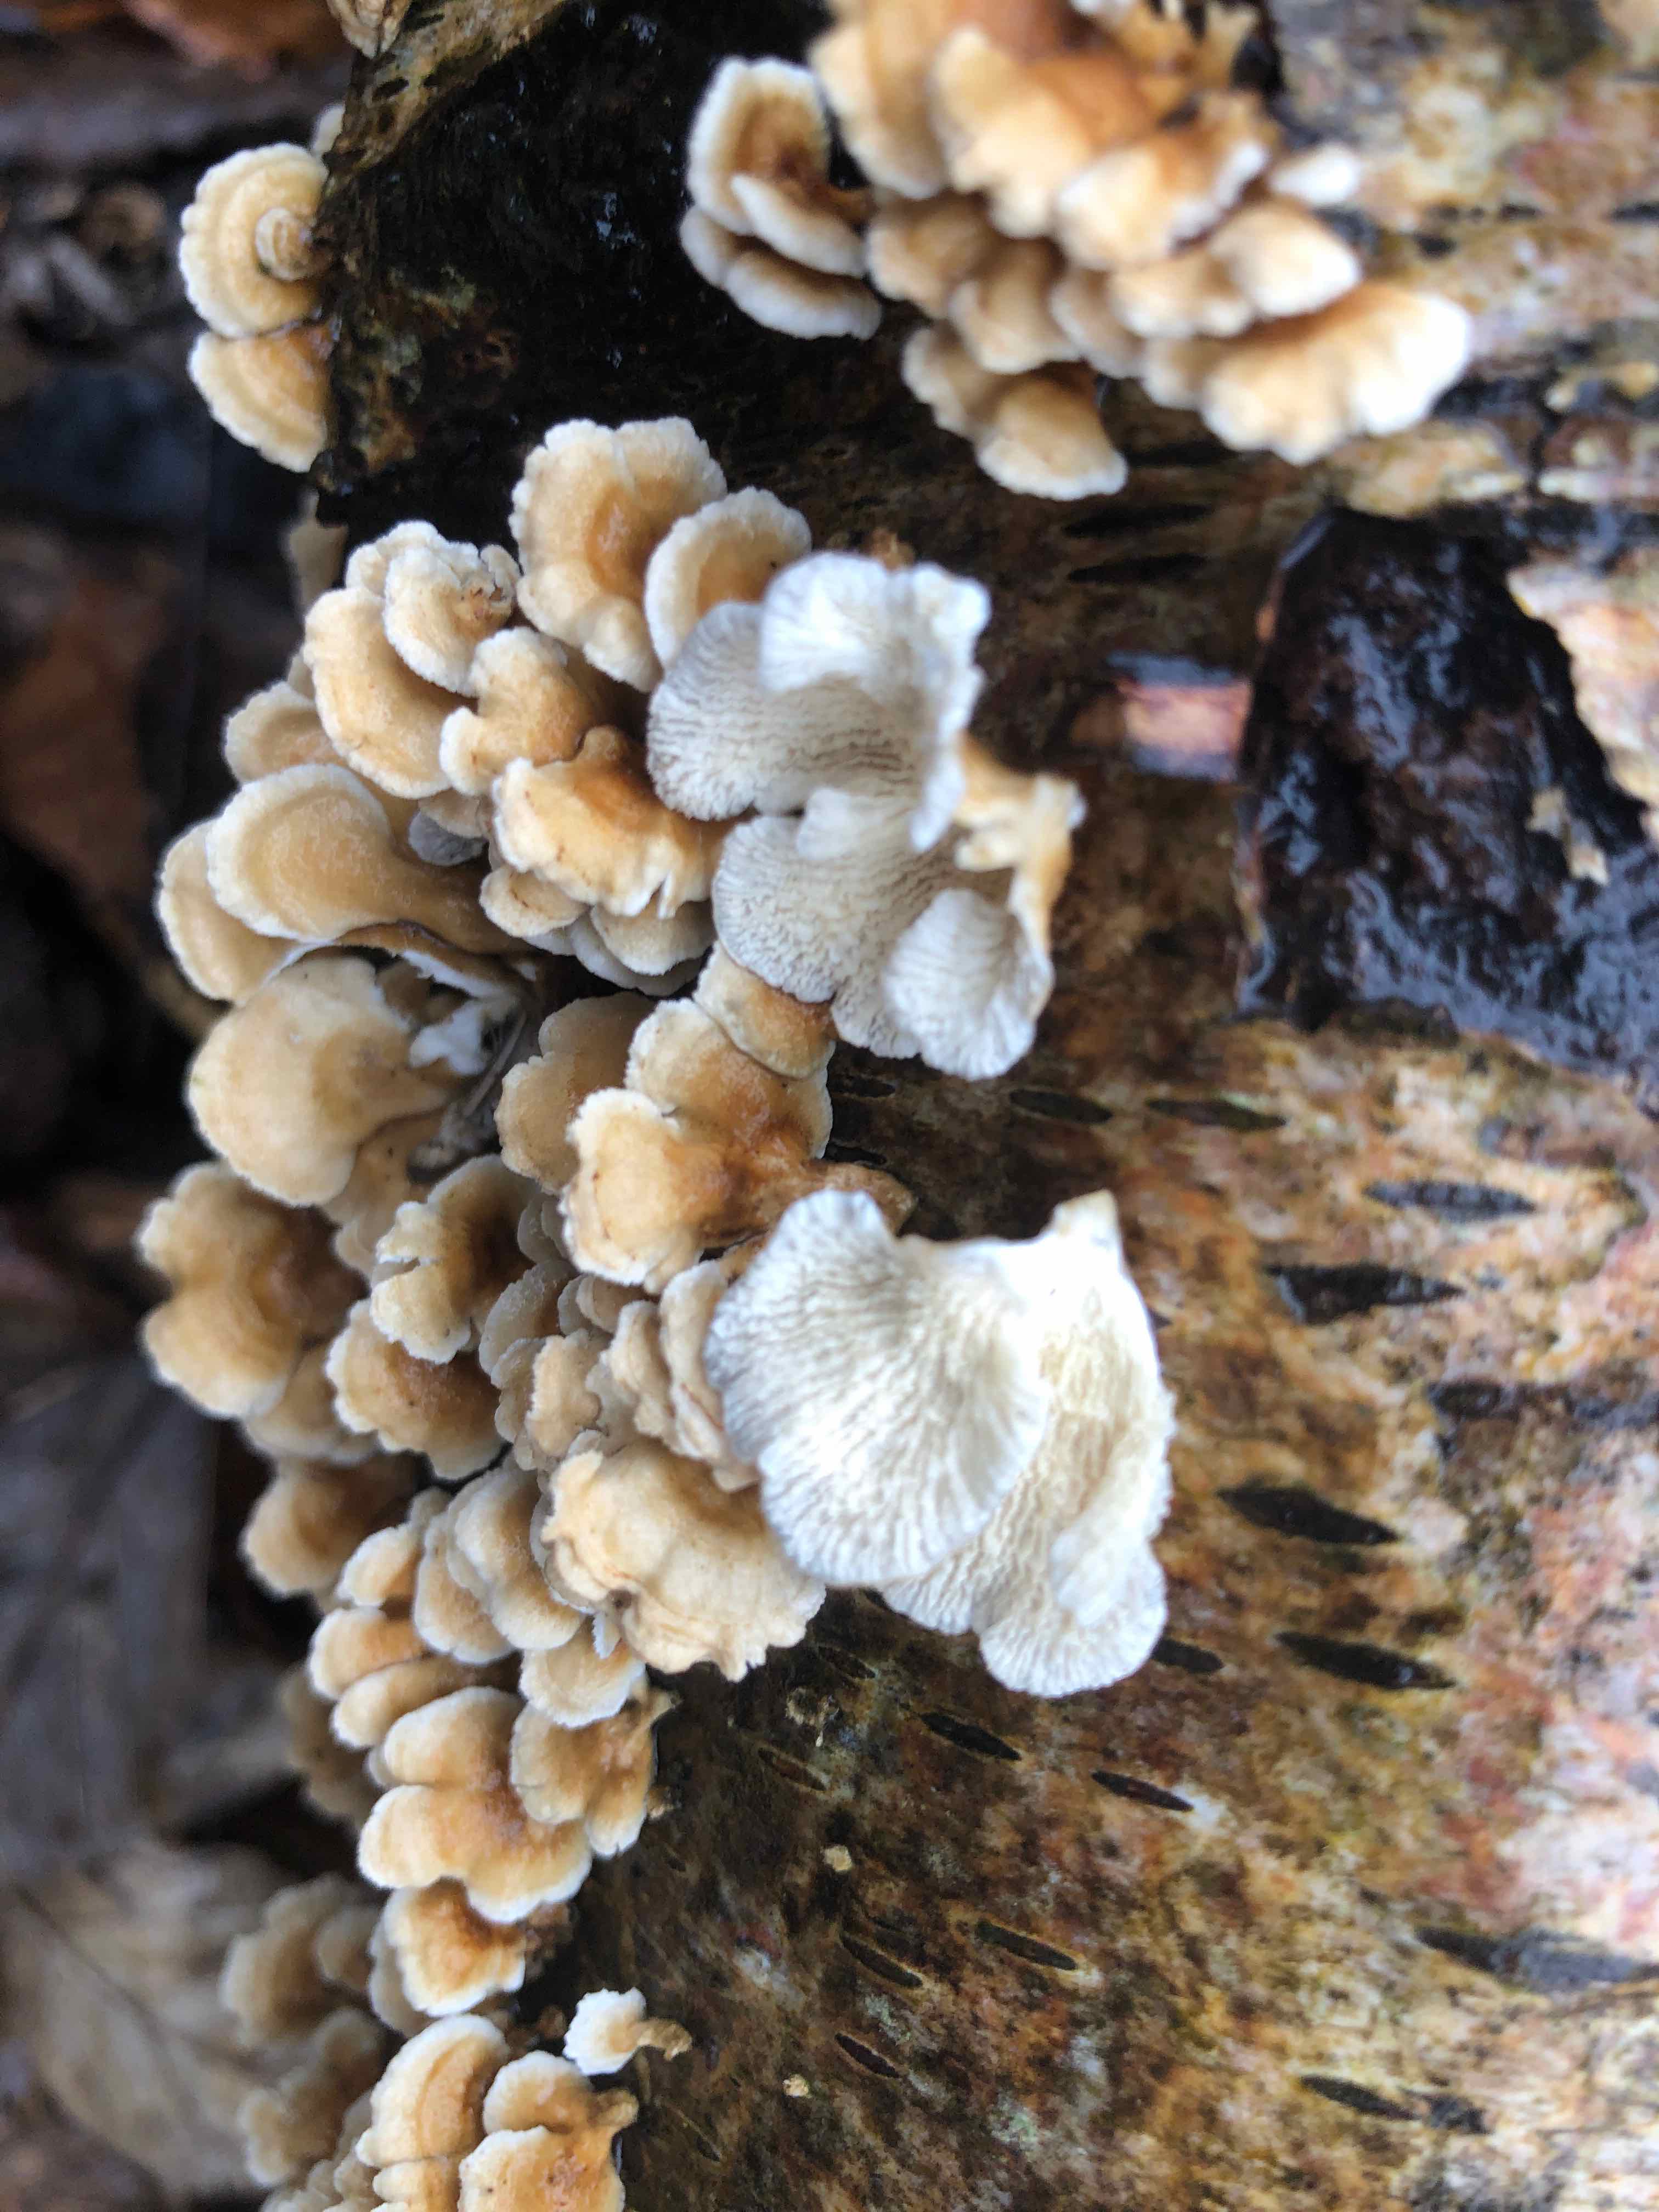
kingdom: Fungi
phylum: Basidiomycota
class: Agaricomycetes
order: Amylocorticiales
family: Amylocorticiaceae
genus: Plicaturopsis
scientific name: Plicaturopsis crispa
